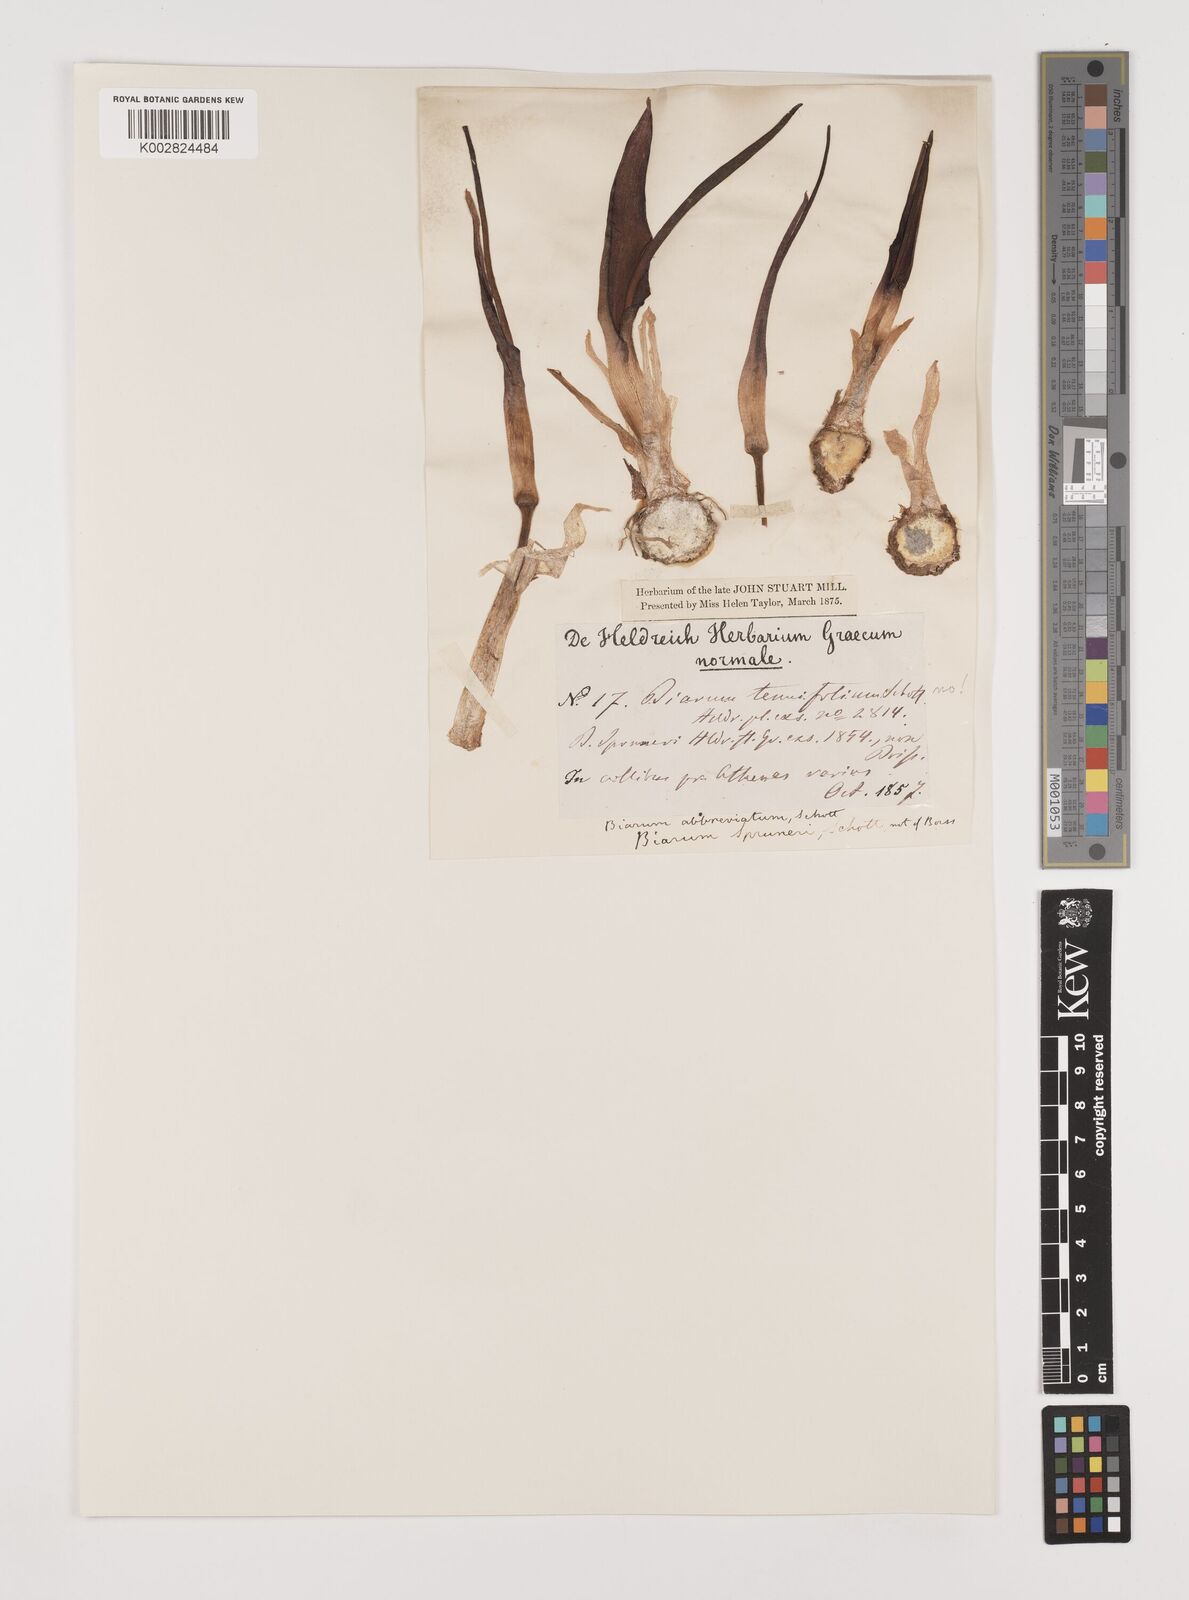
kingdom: Plantae
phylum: Tracheophyta
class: Liliopsida
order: Alismatales
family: Araceae
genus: Biarum
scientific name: Biarum tenuifolium
